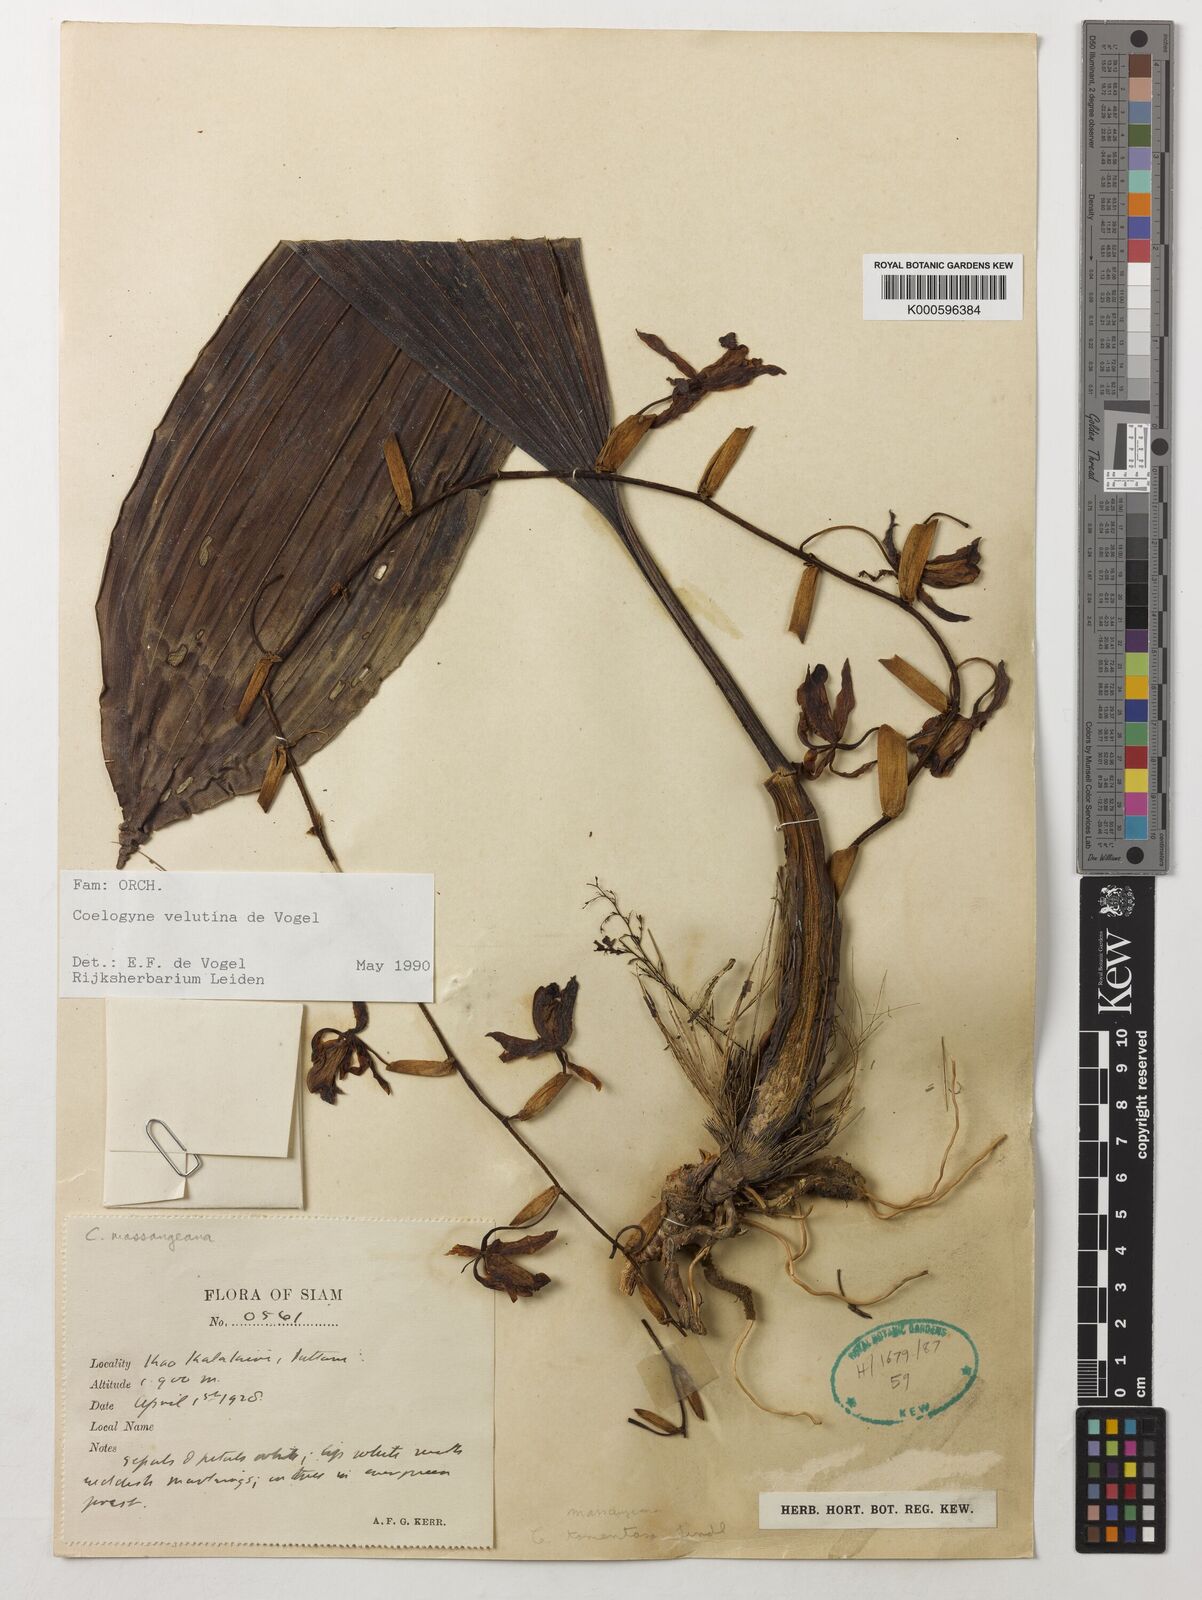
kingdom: Plantae
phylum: Tracheophyta
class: Liliopsida
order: Asparagales
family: Orchidaceae
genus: Coelogyne
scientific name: Coelogyne velutina
